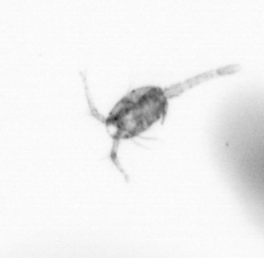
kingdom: Animalia
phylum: Arthropoda
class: Copepoda
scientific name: Copepoda
